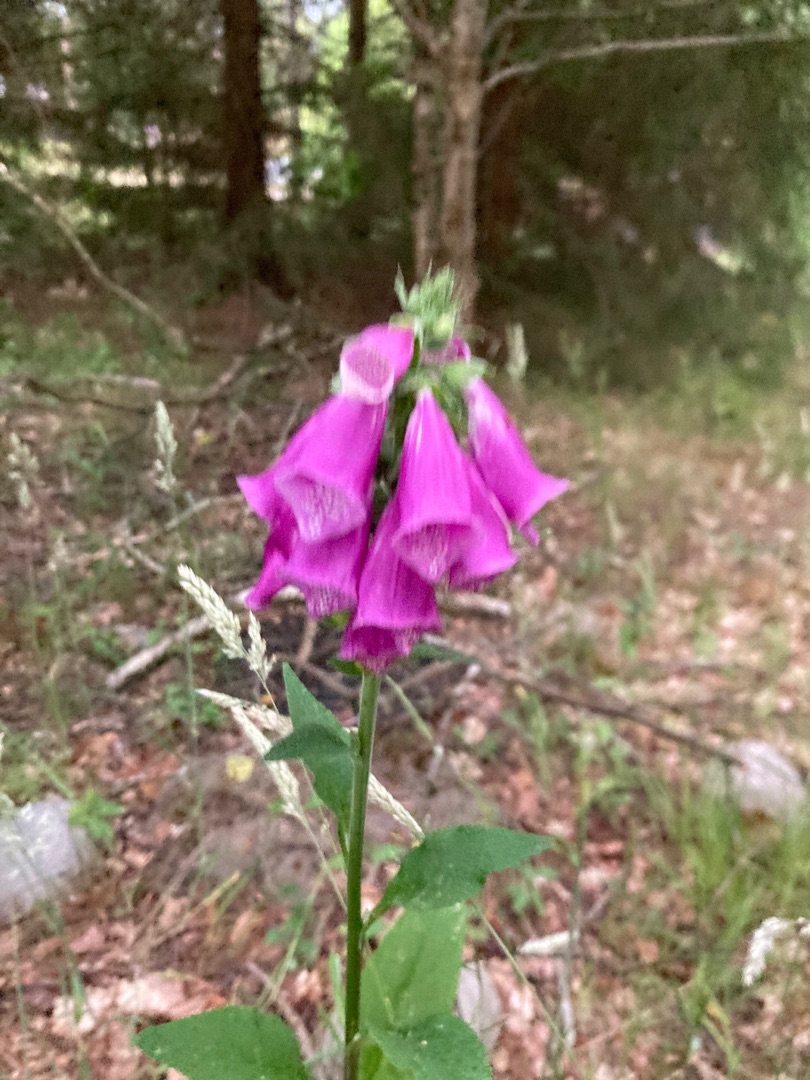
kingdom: Plantae
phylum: Tracheophyta
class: Magnoliopsida
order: Lamiales
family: Plantaginaceae
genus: Digitalis
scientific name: Digitalis purpurea
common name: Almindelig fingerbøl
